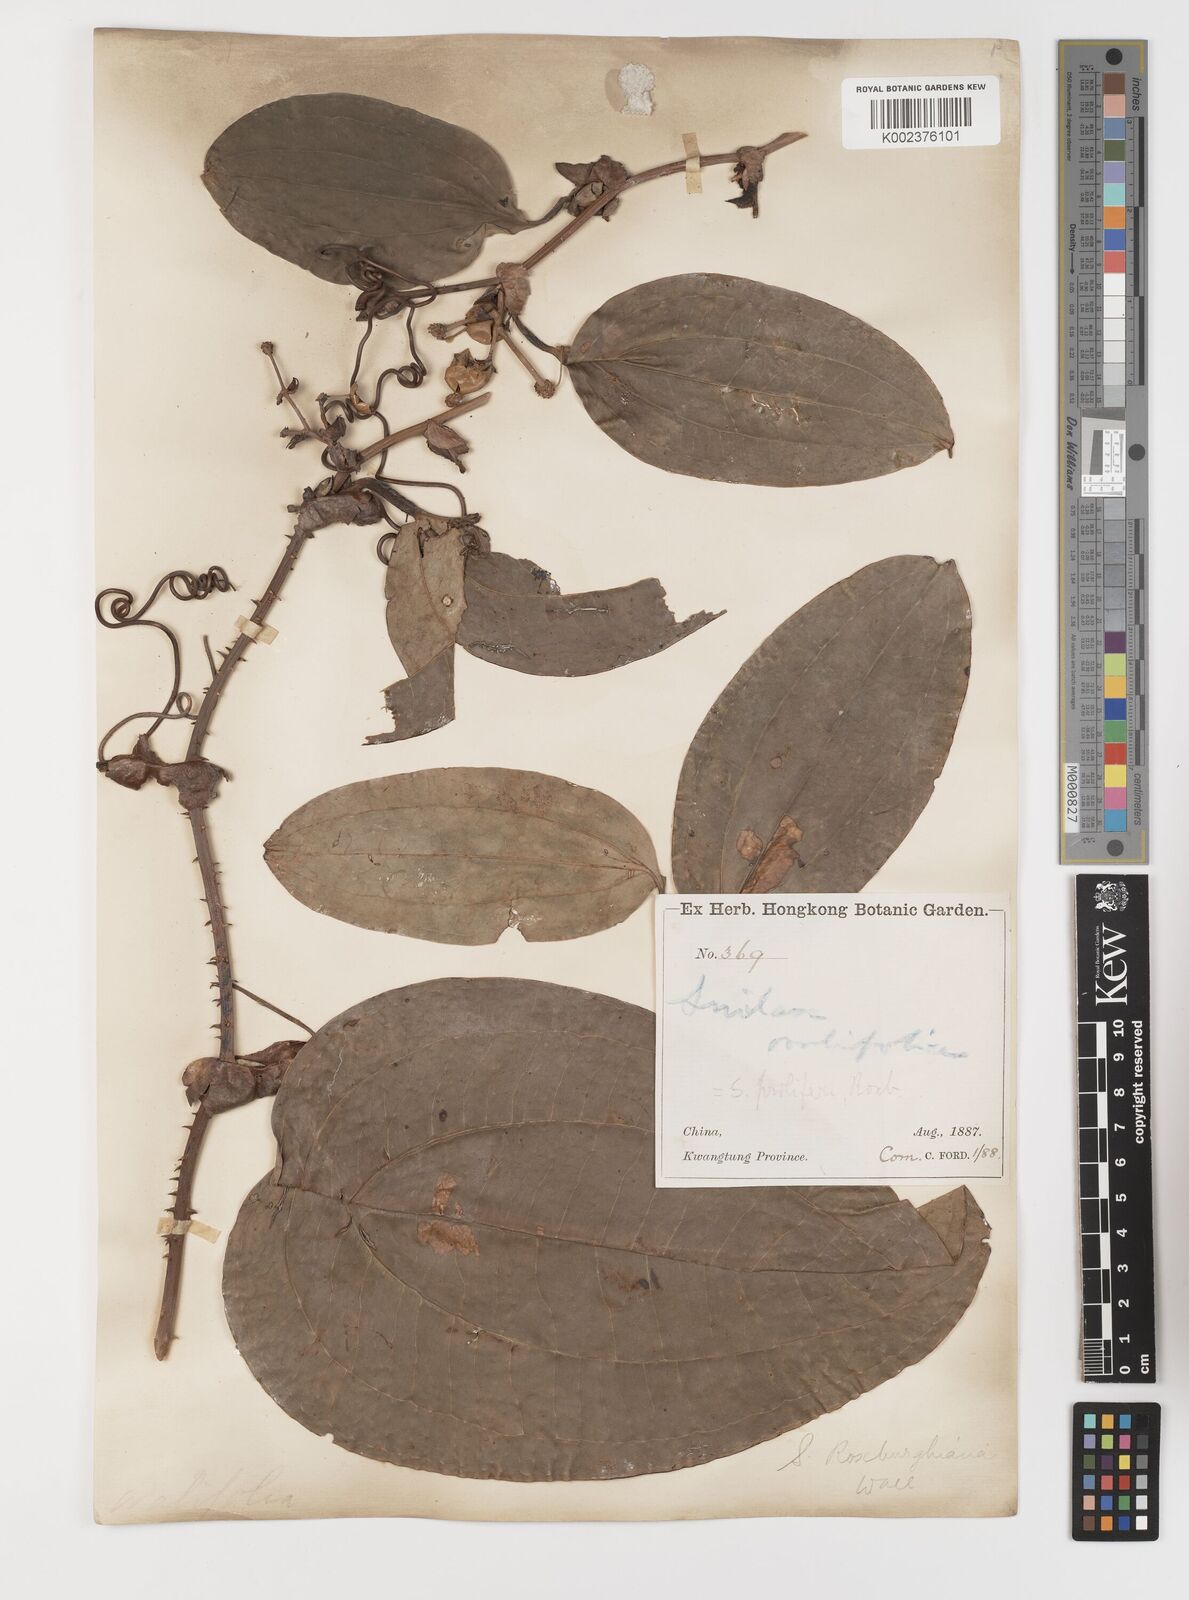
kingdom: Plantae
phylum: Tracheophyta
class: Liliopsida
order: Liliales
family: Smilacaceae
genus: Smilax
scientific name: Smilax
